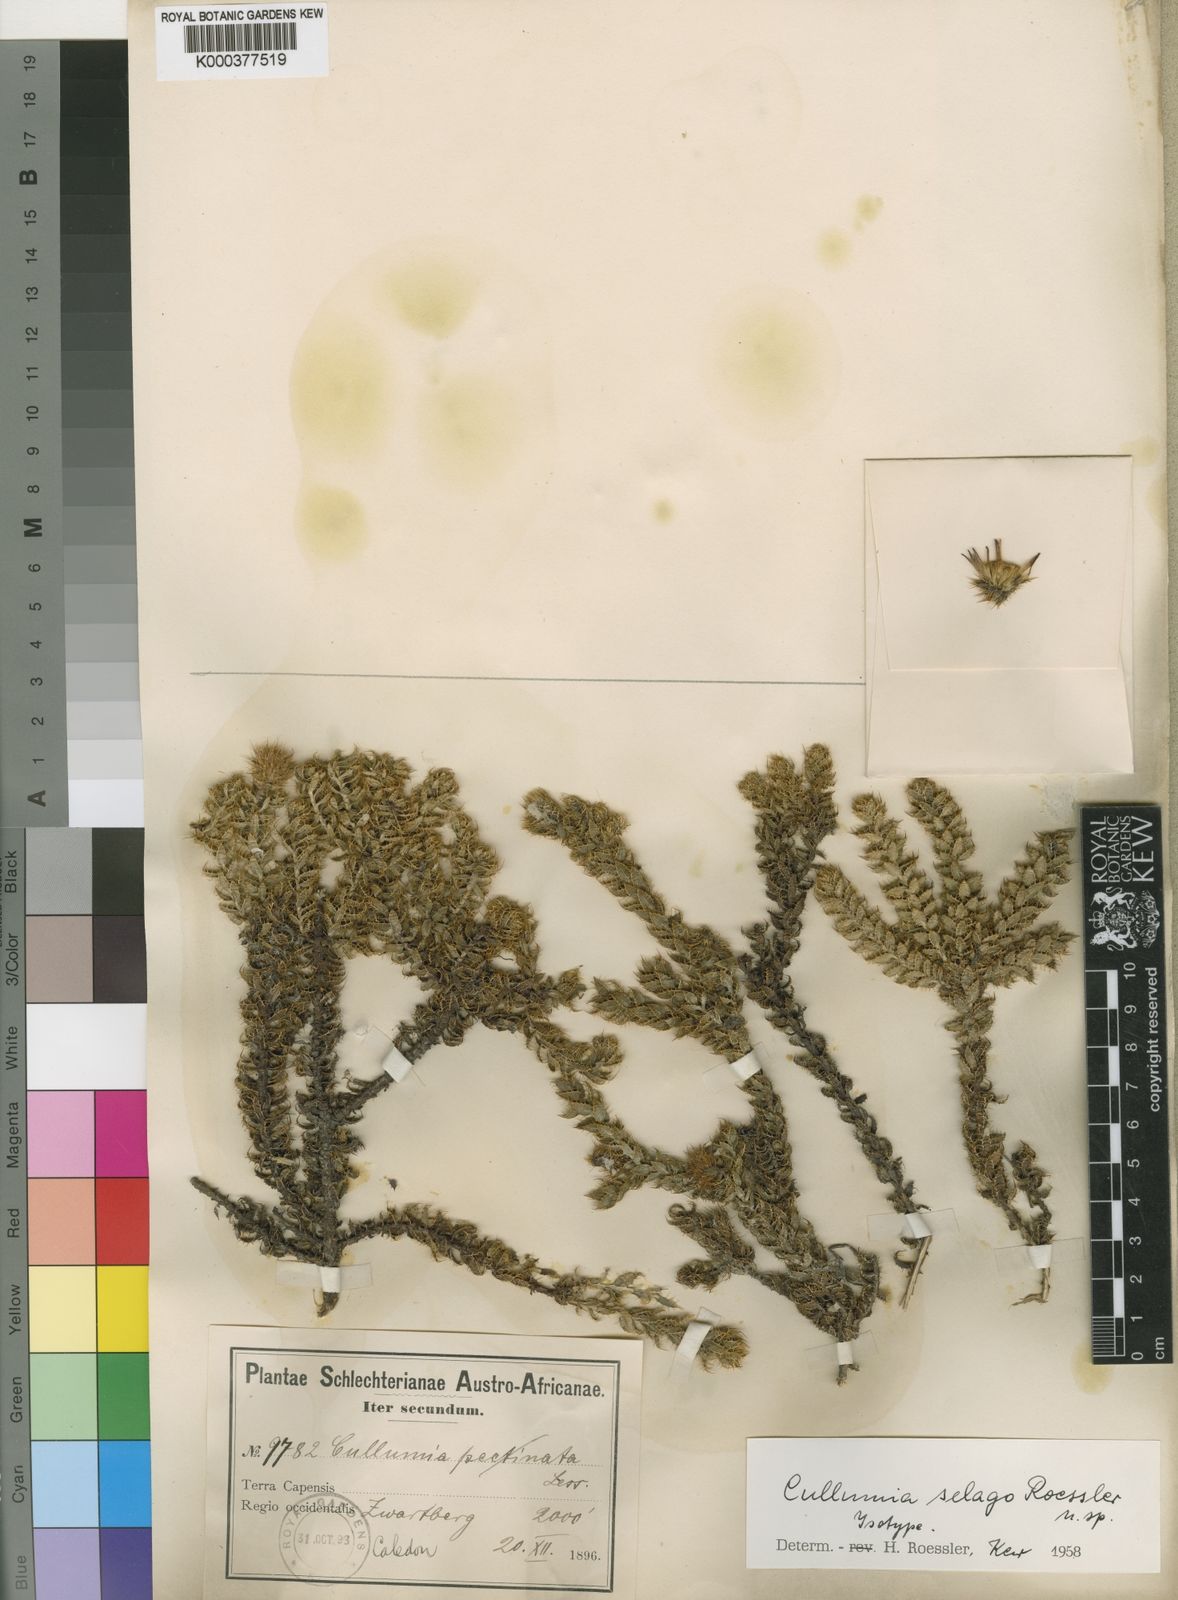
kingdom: Plantae
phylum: Tracheophyta
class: Magnoliopsida
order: Asterales
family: Asteraceae
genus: Cullumia
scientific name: Cullumia selago
